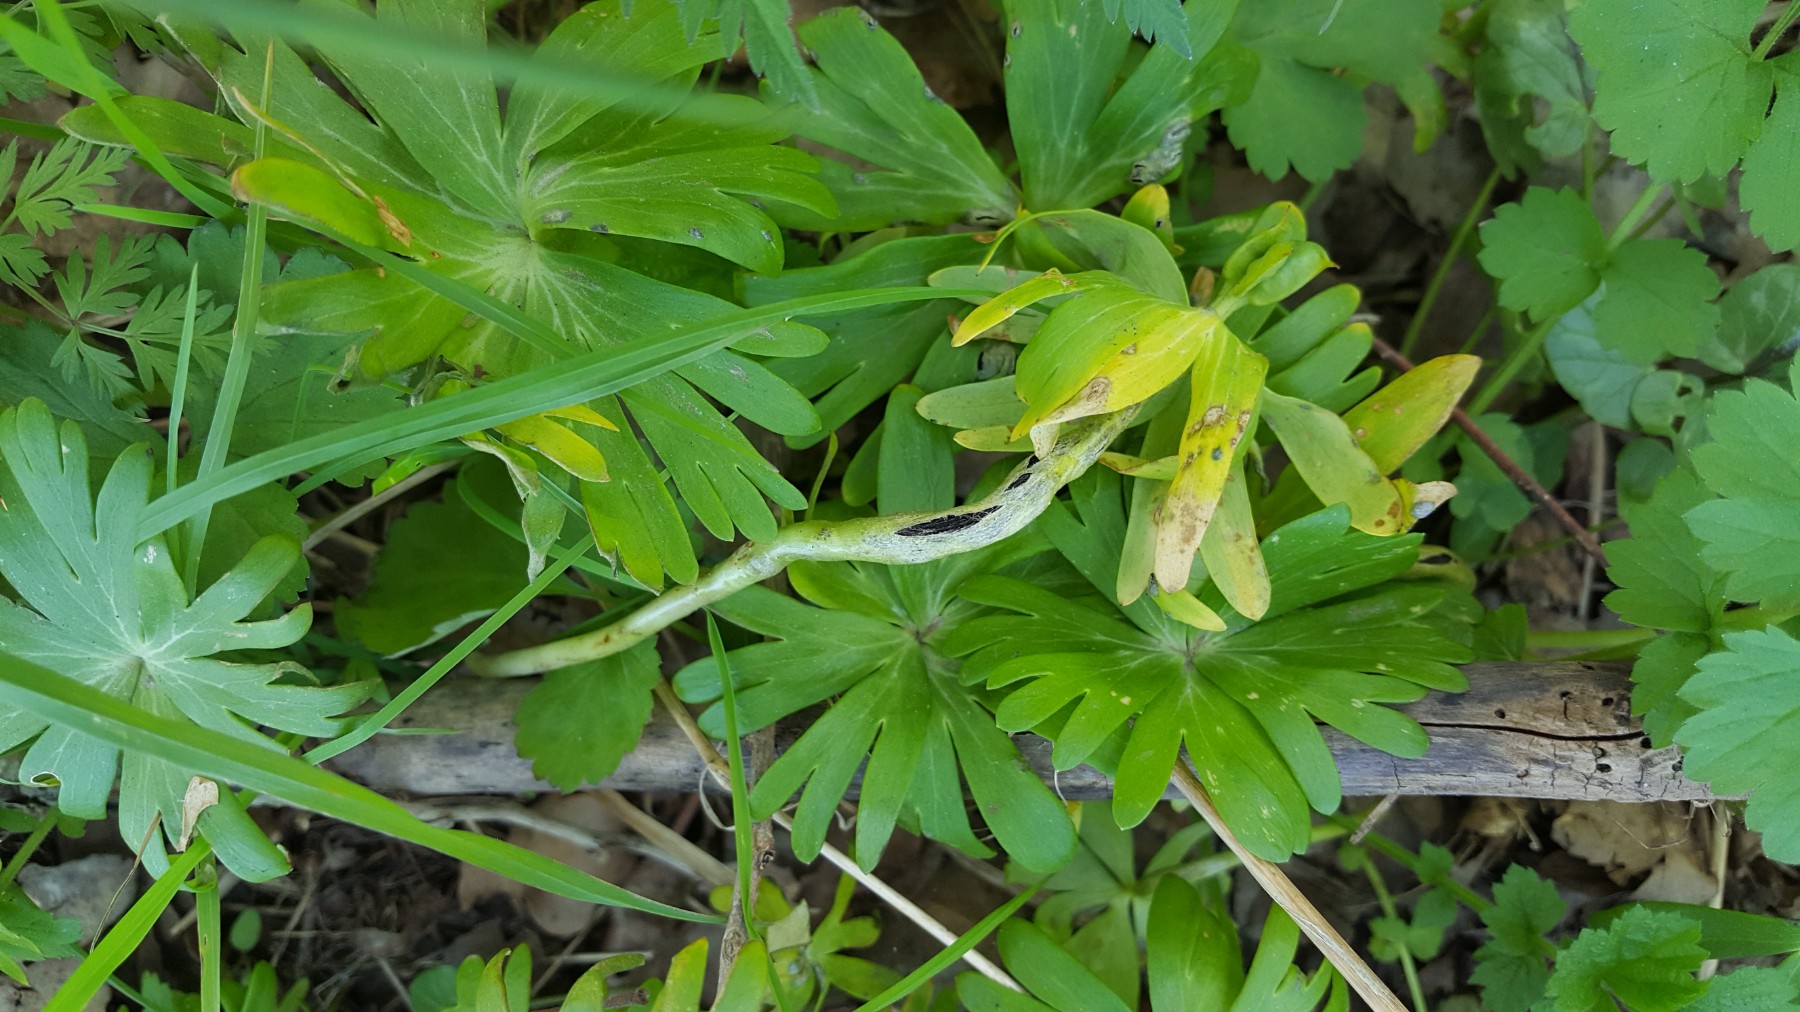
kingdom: Fungi
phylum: Basidiomycota
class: Ustilaginomycetes
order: Urocystidales
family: Urocystidaceae
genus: Urocystis
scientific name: Urocystis eranthidis
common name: erantis-brand
